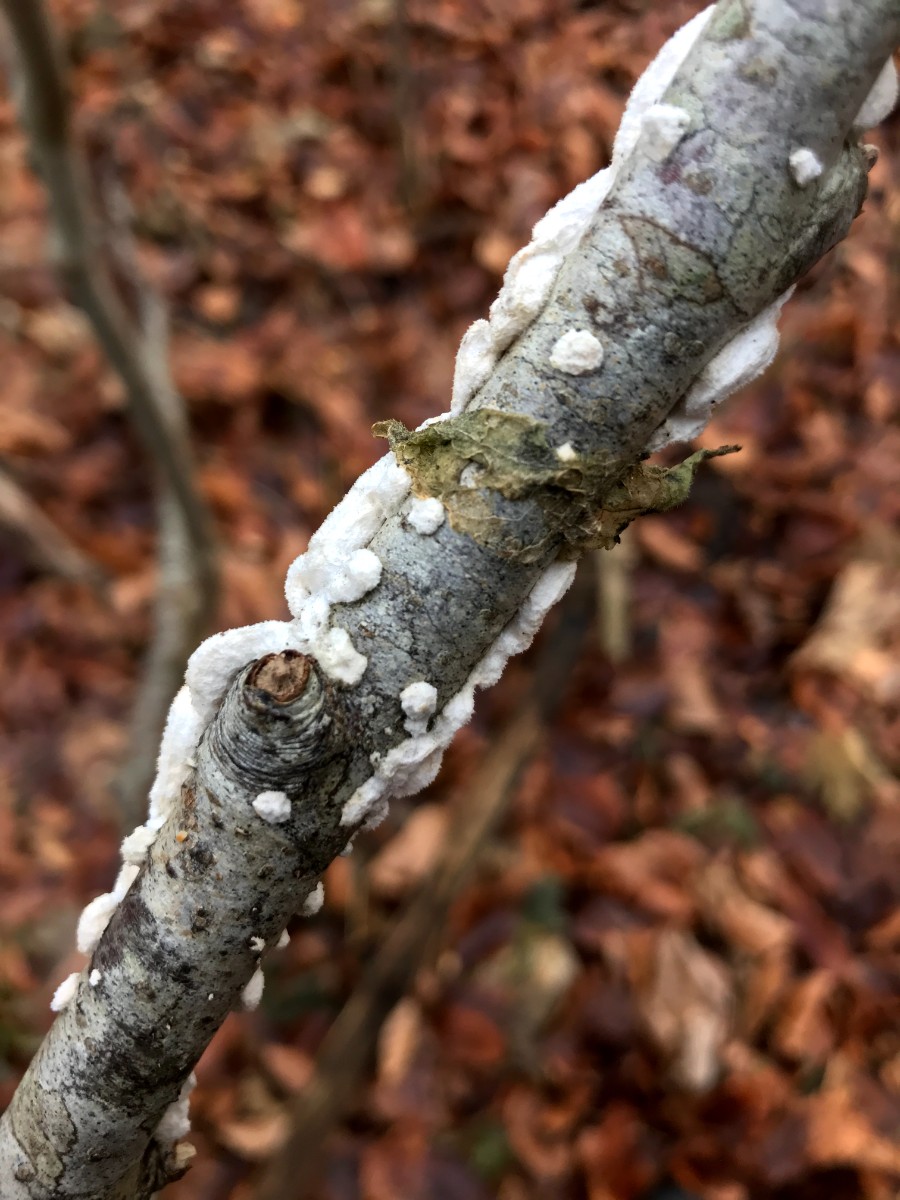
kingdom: Fungi
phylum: Basidiomycota
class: Agaricomycetes
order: Polyporales
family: Irpicaceae
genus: Byssomerulius
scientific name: Byssomerulius corium
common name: læder-åresvamp
